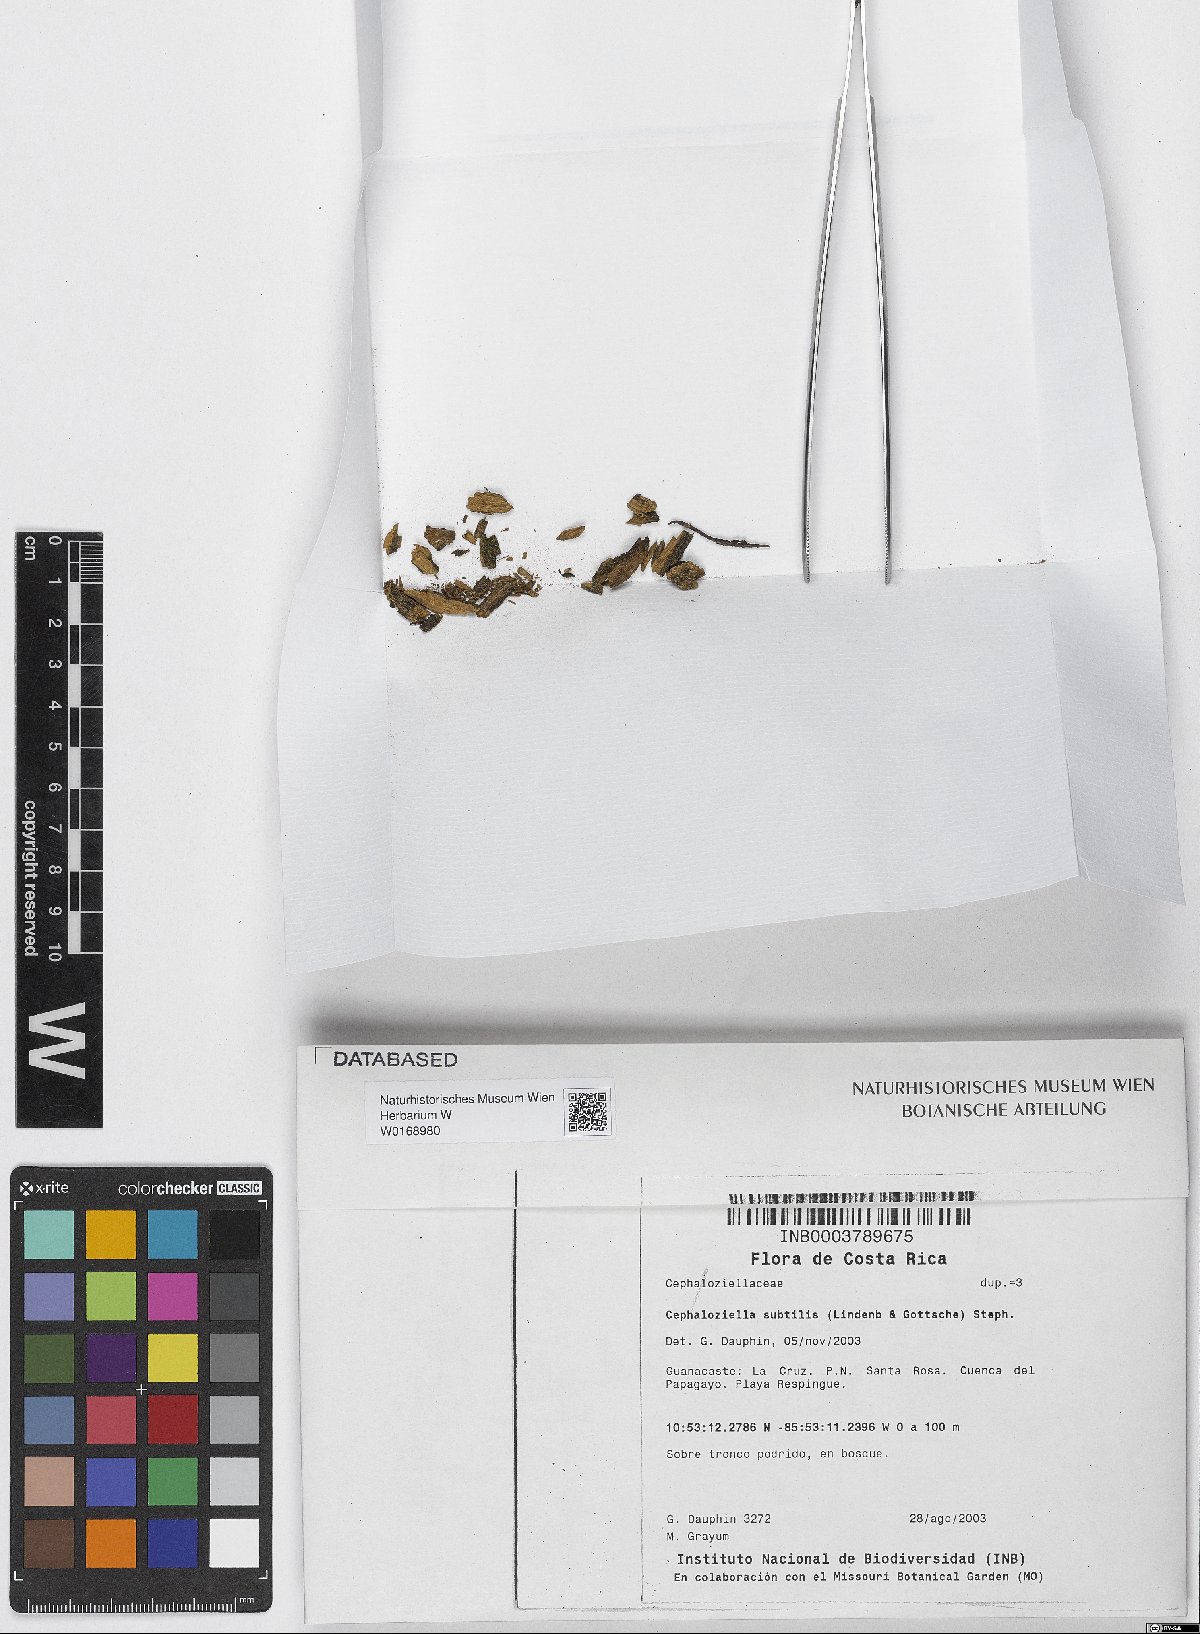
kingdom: Plantae
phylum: Marchantiophyta
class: Jungermanniopsida
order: Jungermanniales
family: Cephaloziellaceae
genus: Cephaloziella
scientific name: Cephaloziella subtilis
